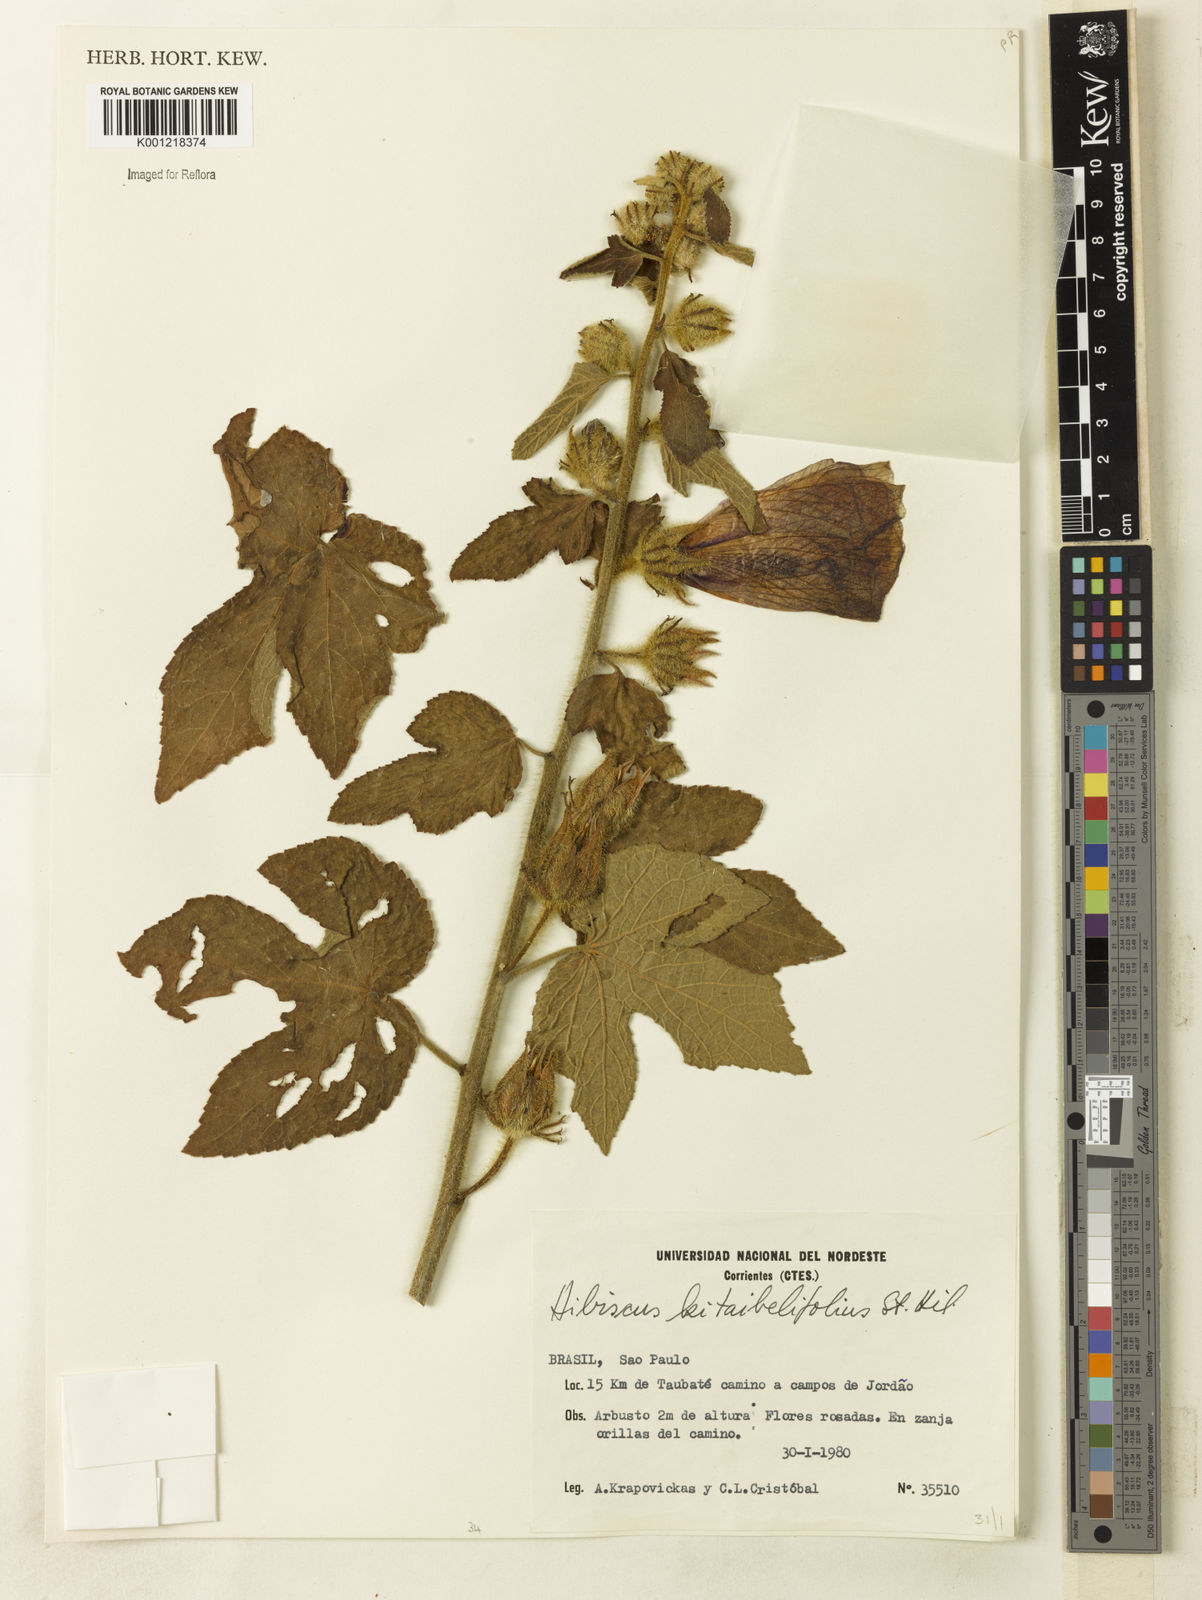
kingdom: Plantae
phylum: Tracheophyta
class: Magnoliopsida
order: Malvales
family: Malvaceae
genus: Hibiscus
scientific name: Hibiscus kitaibelifolius
